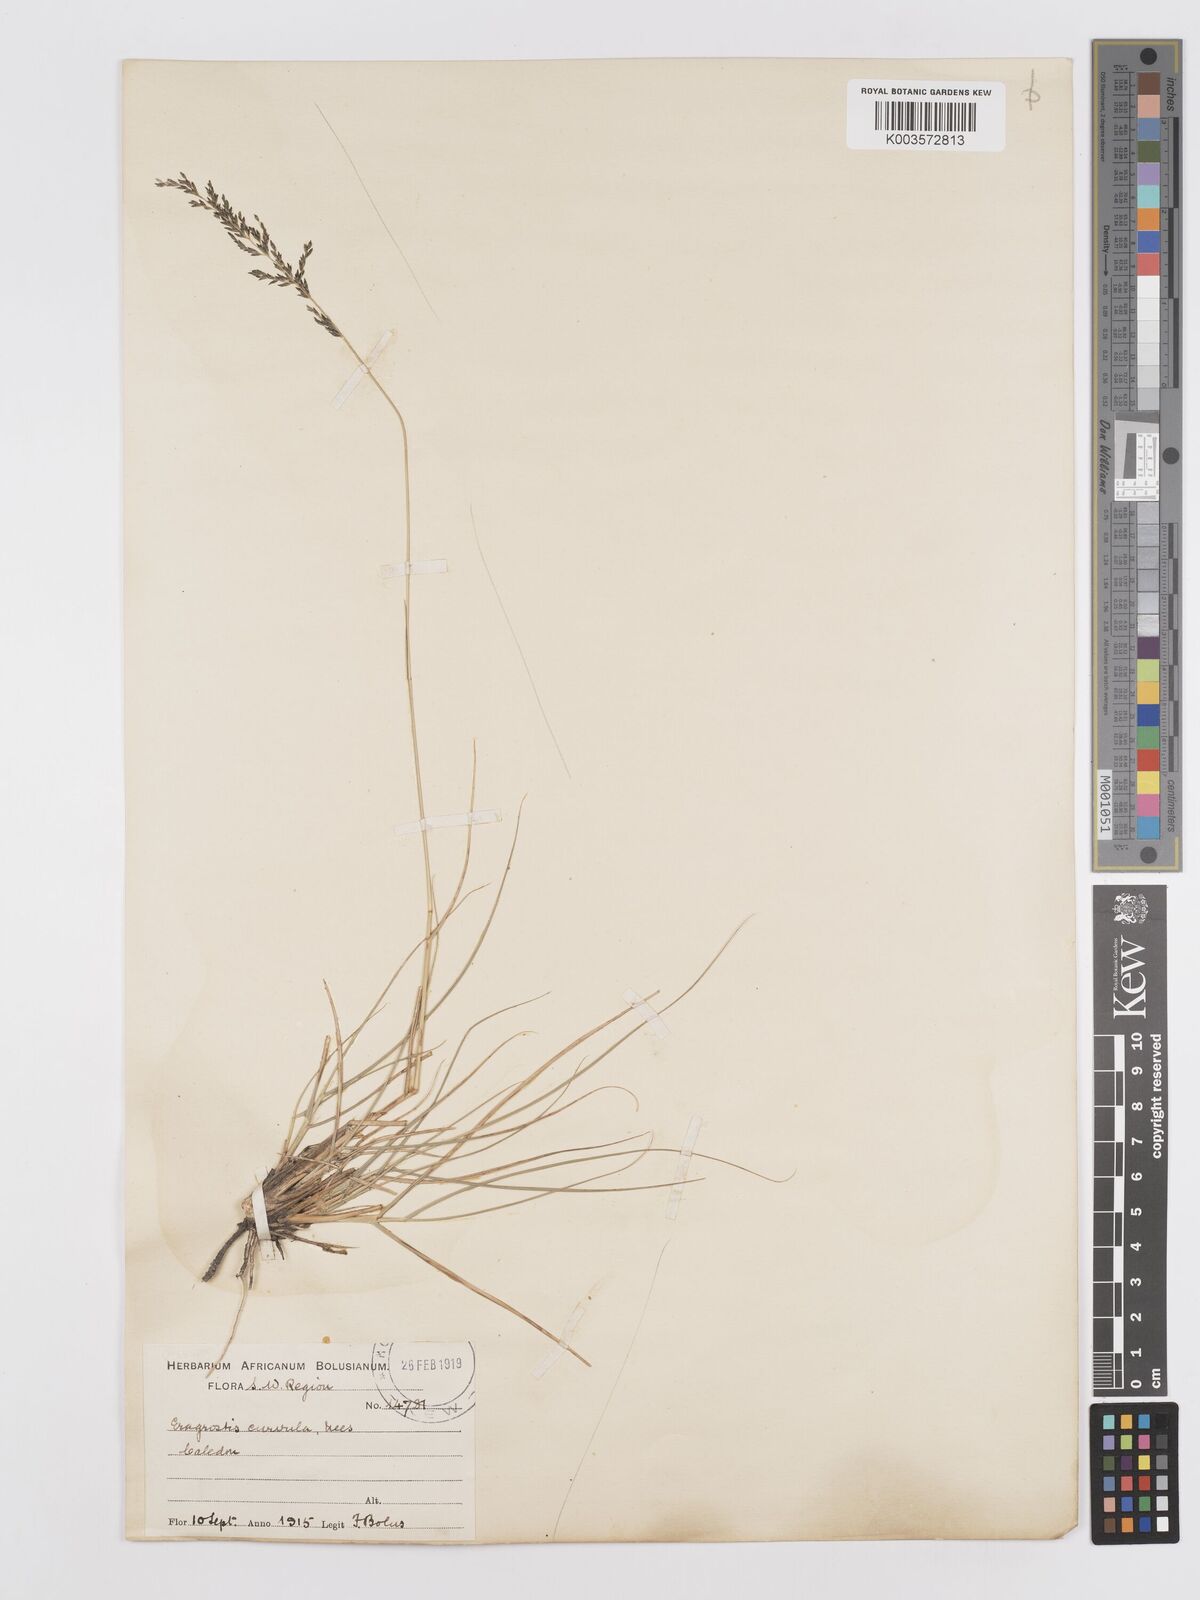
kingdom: Plantae
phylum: Tracheophyta
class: Liliopsida
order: Poales
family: Poaceae
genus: Eragrostis
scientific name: Eragrostis curvula
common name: African love-grass
